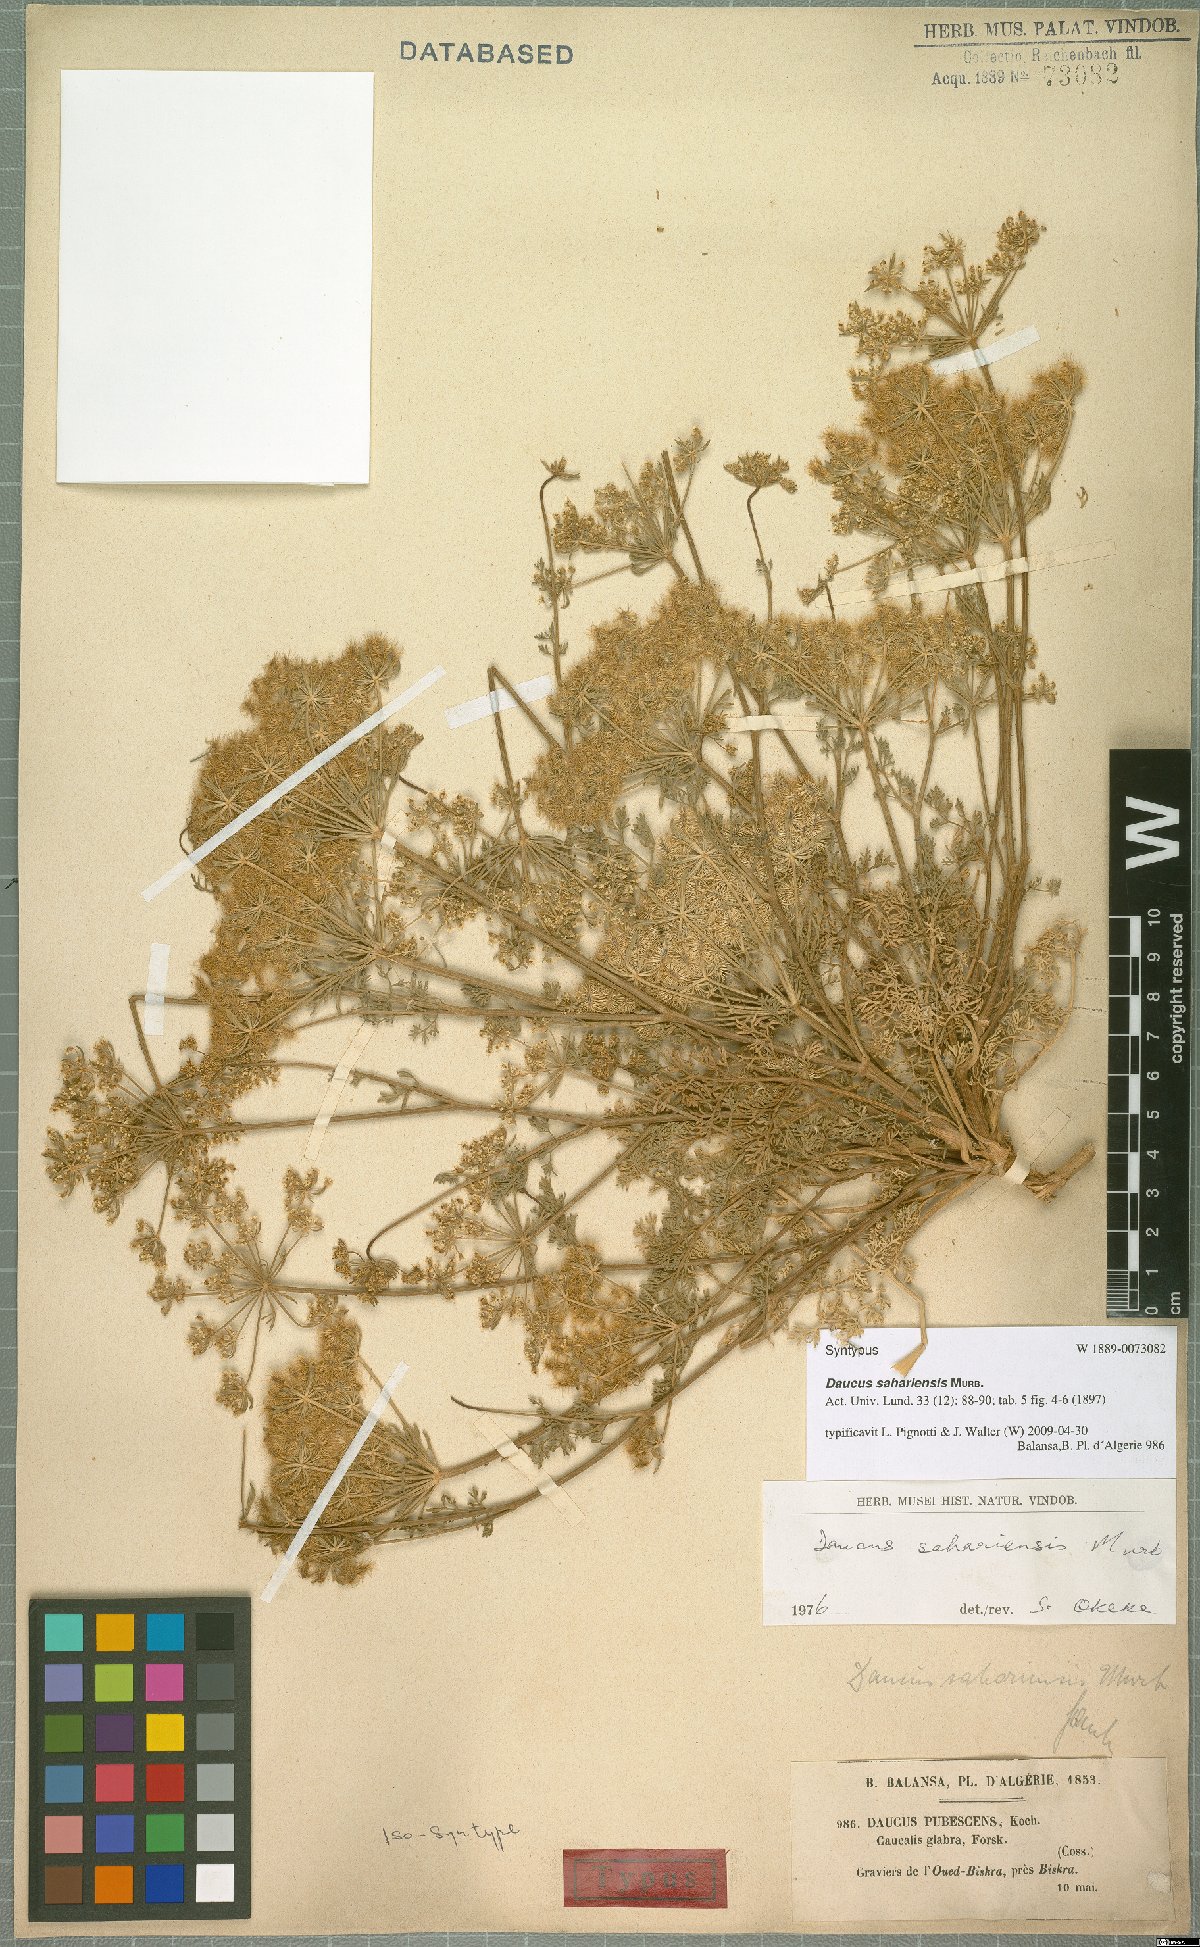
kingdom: Plantae
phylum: Tracheophyta
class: Magnoliopsida
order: Apiales
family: Apiaceae
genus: Daucus
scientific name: Daucus sahariensis
